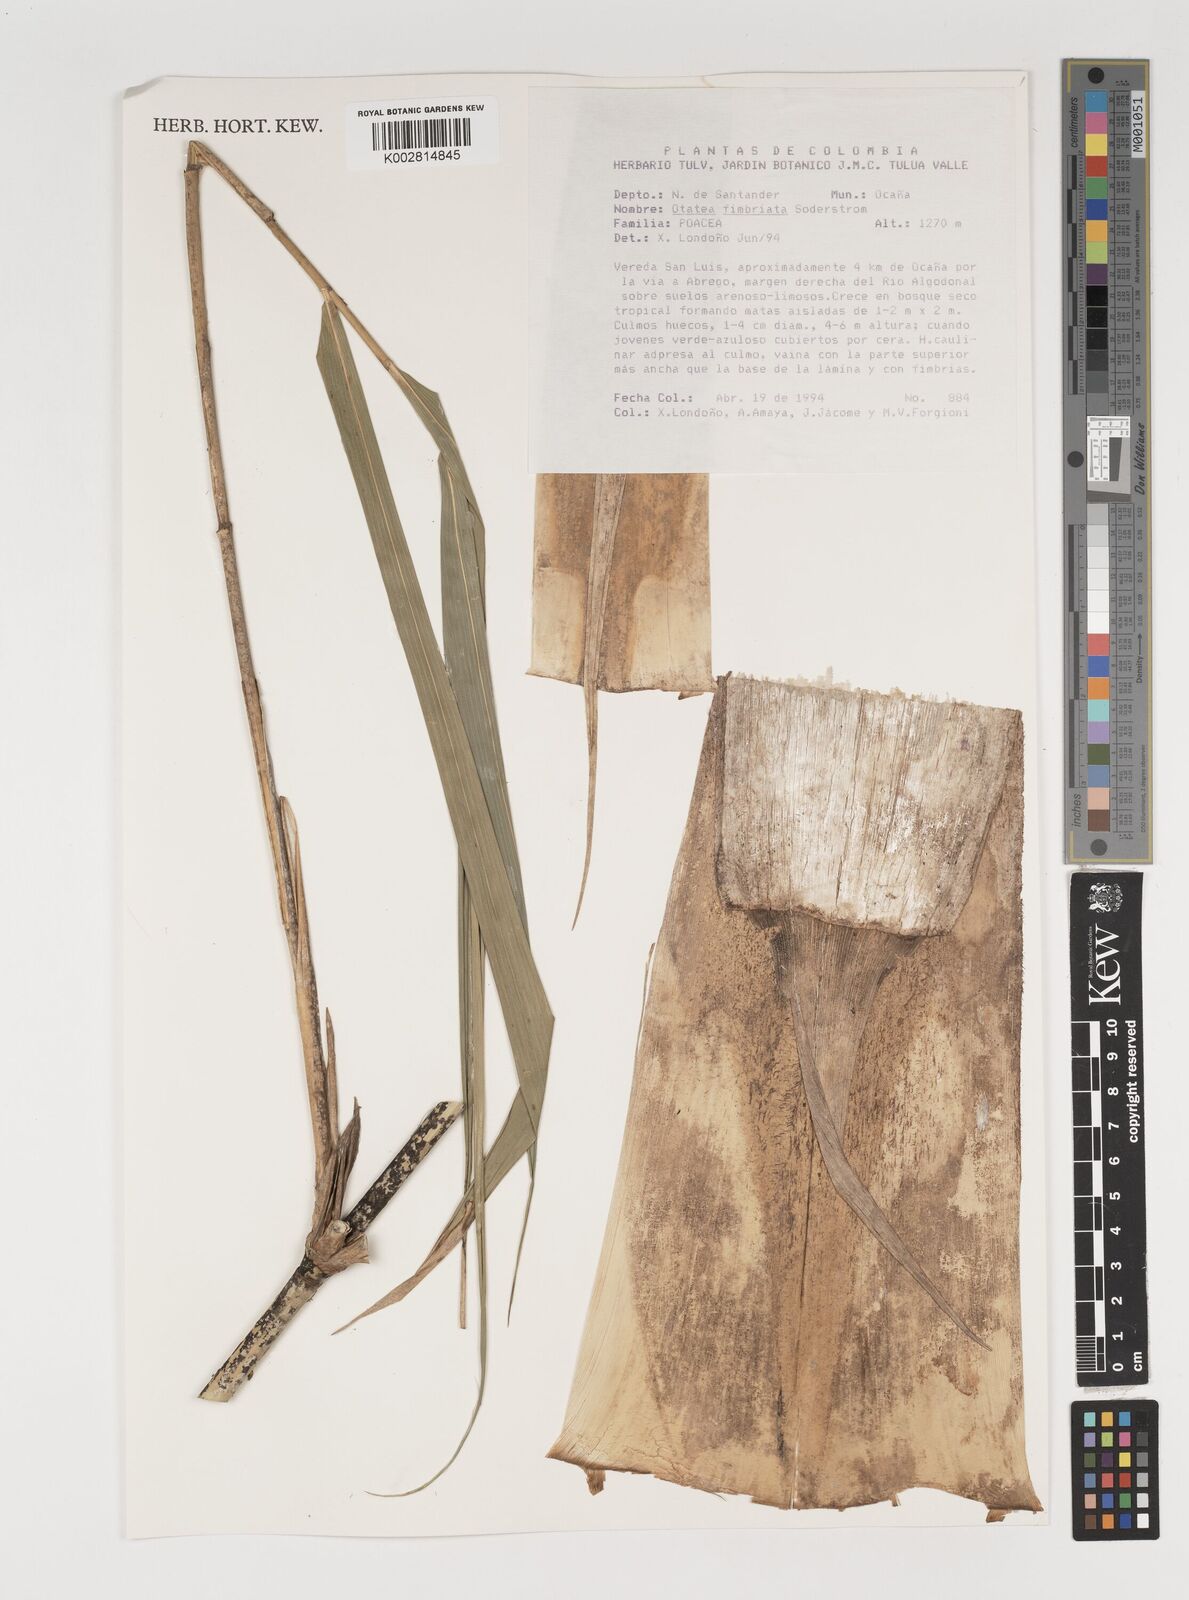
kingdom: Plantae
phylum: Tracheophyta
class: Liliopsida
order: Poales
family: Poaceae
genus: Olmeca
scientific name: Olmeca
